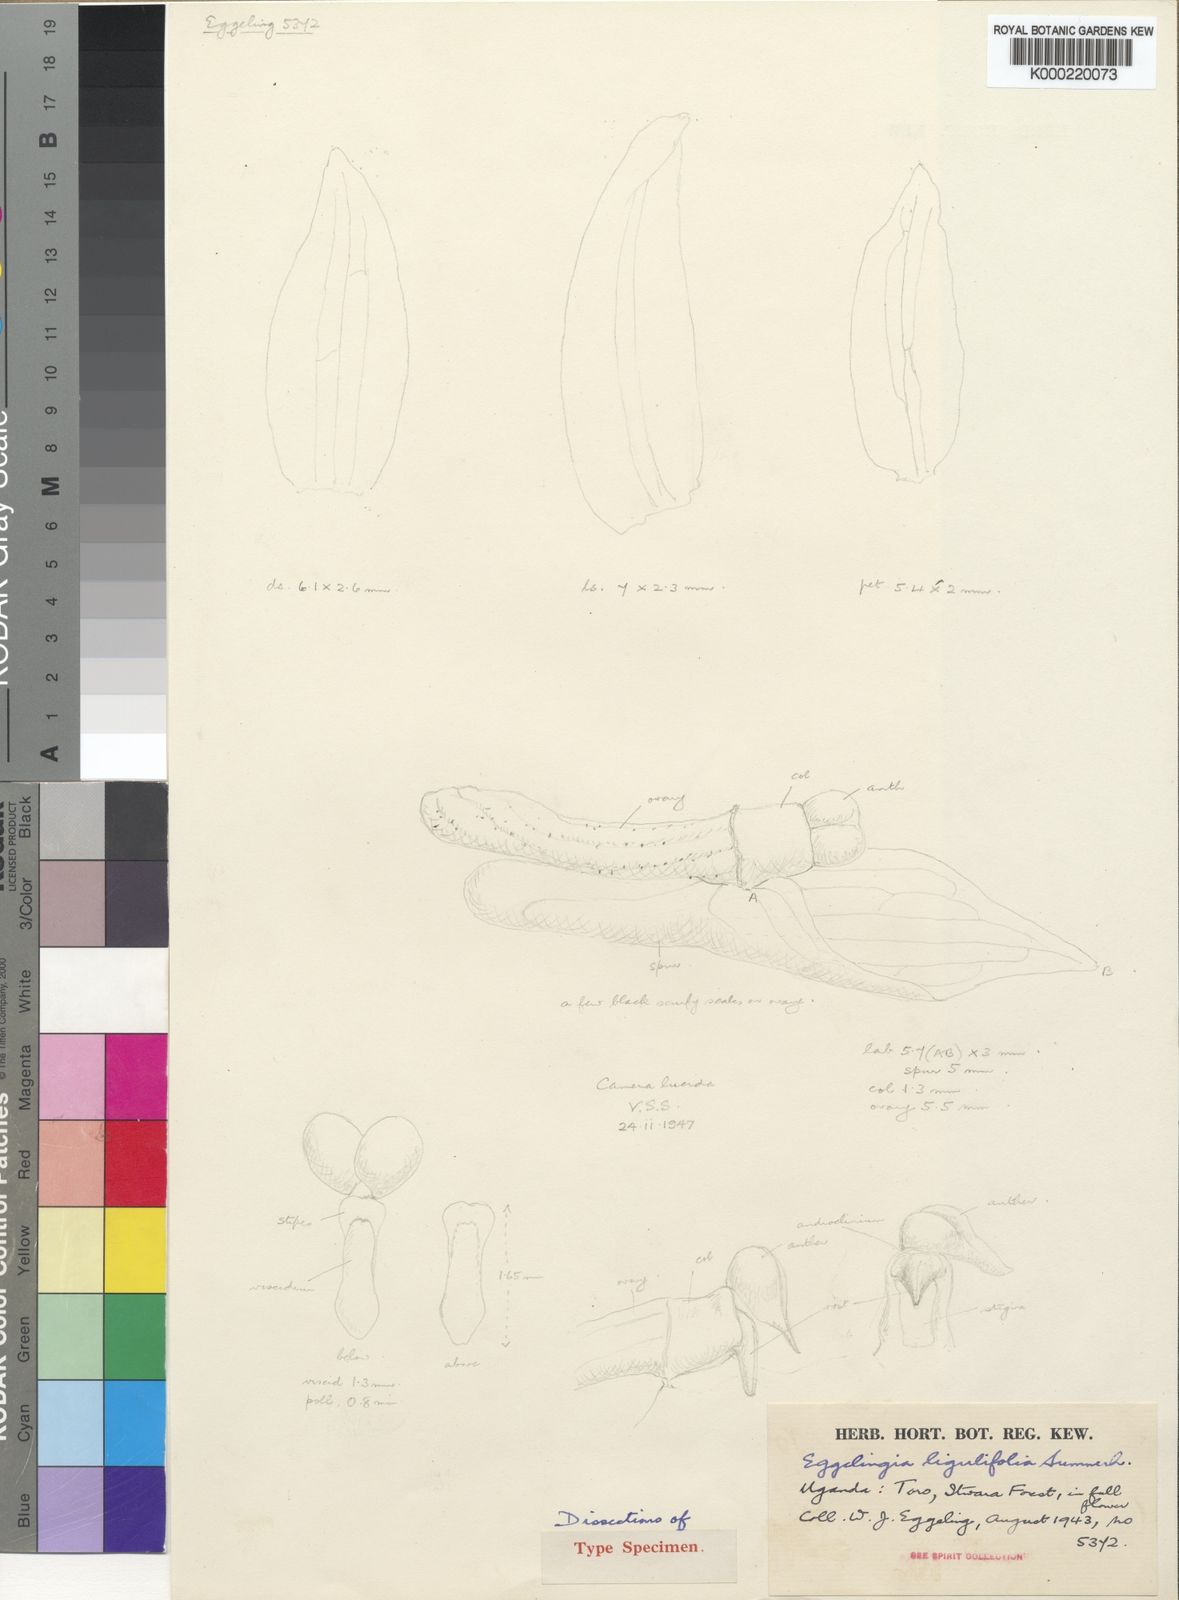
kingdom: Plantae
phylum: Tracheophyta
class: Liliopsida
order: Asparagales
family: Orchidaceae
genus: Eggelingia
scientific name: Eggelingia ligulifolia
